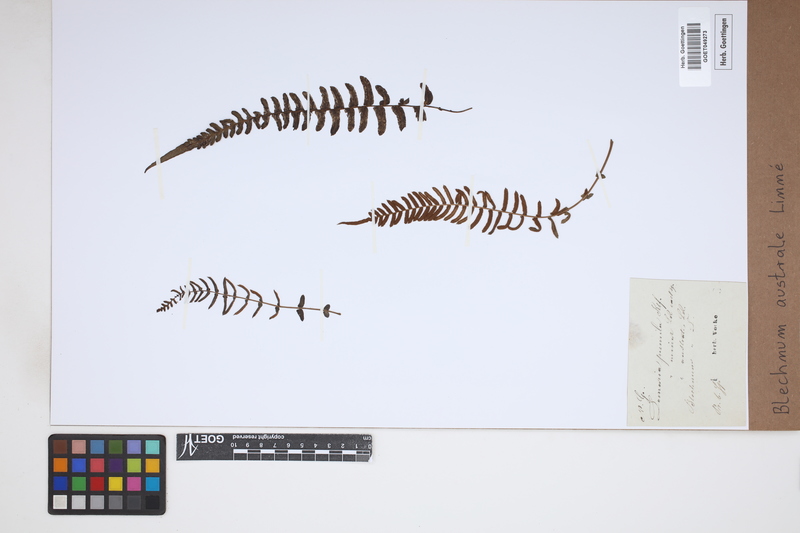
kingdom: Plantae
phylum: Tracheophyta
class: Polypodiopsida
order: Polypodiales
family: Blechnaceae
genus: Blechnum
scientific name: Blechnum australe
